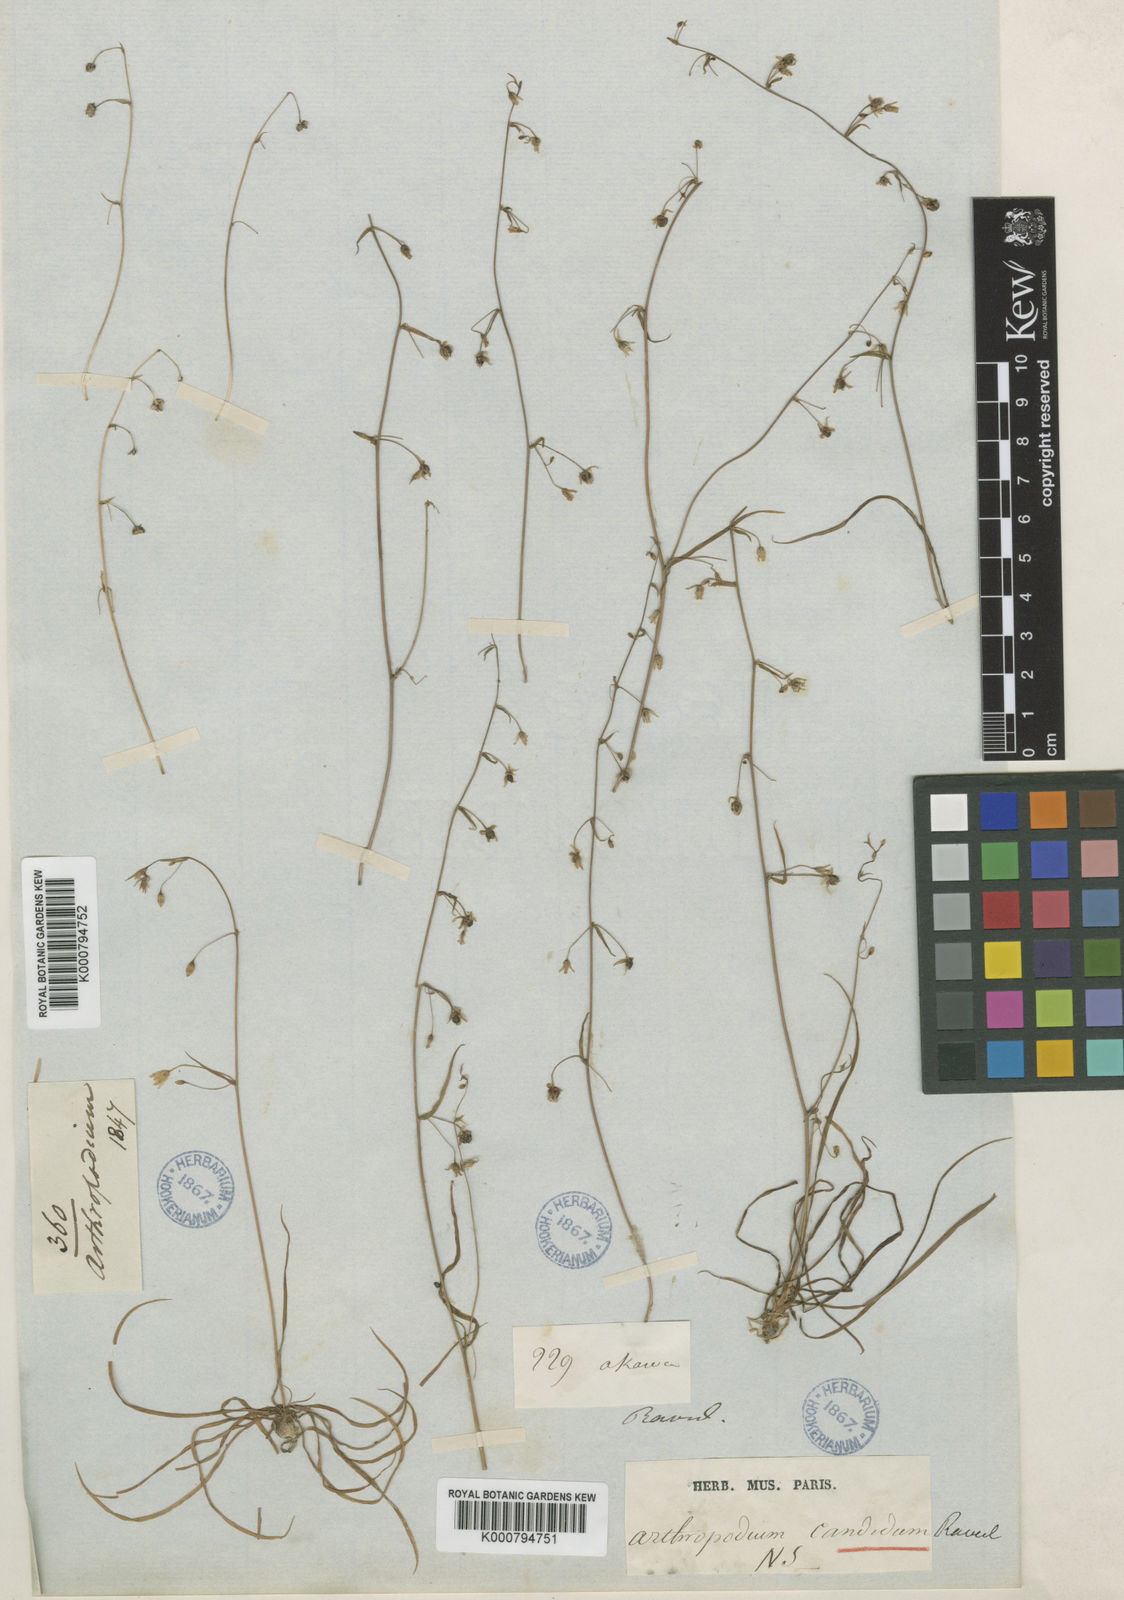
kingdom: Plantae
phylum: Tracheophyta
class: Liliopsida
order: Asparagales
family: Asparagaceae
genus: Arthropodium
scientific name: Arthropodium candidum
